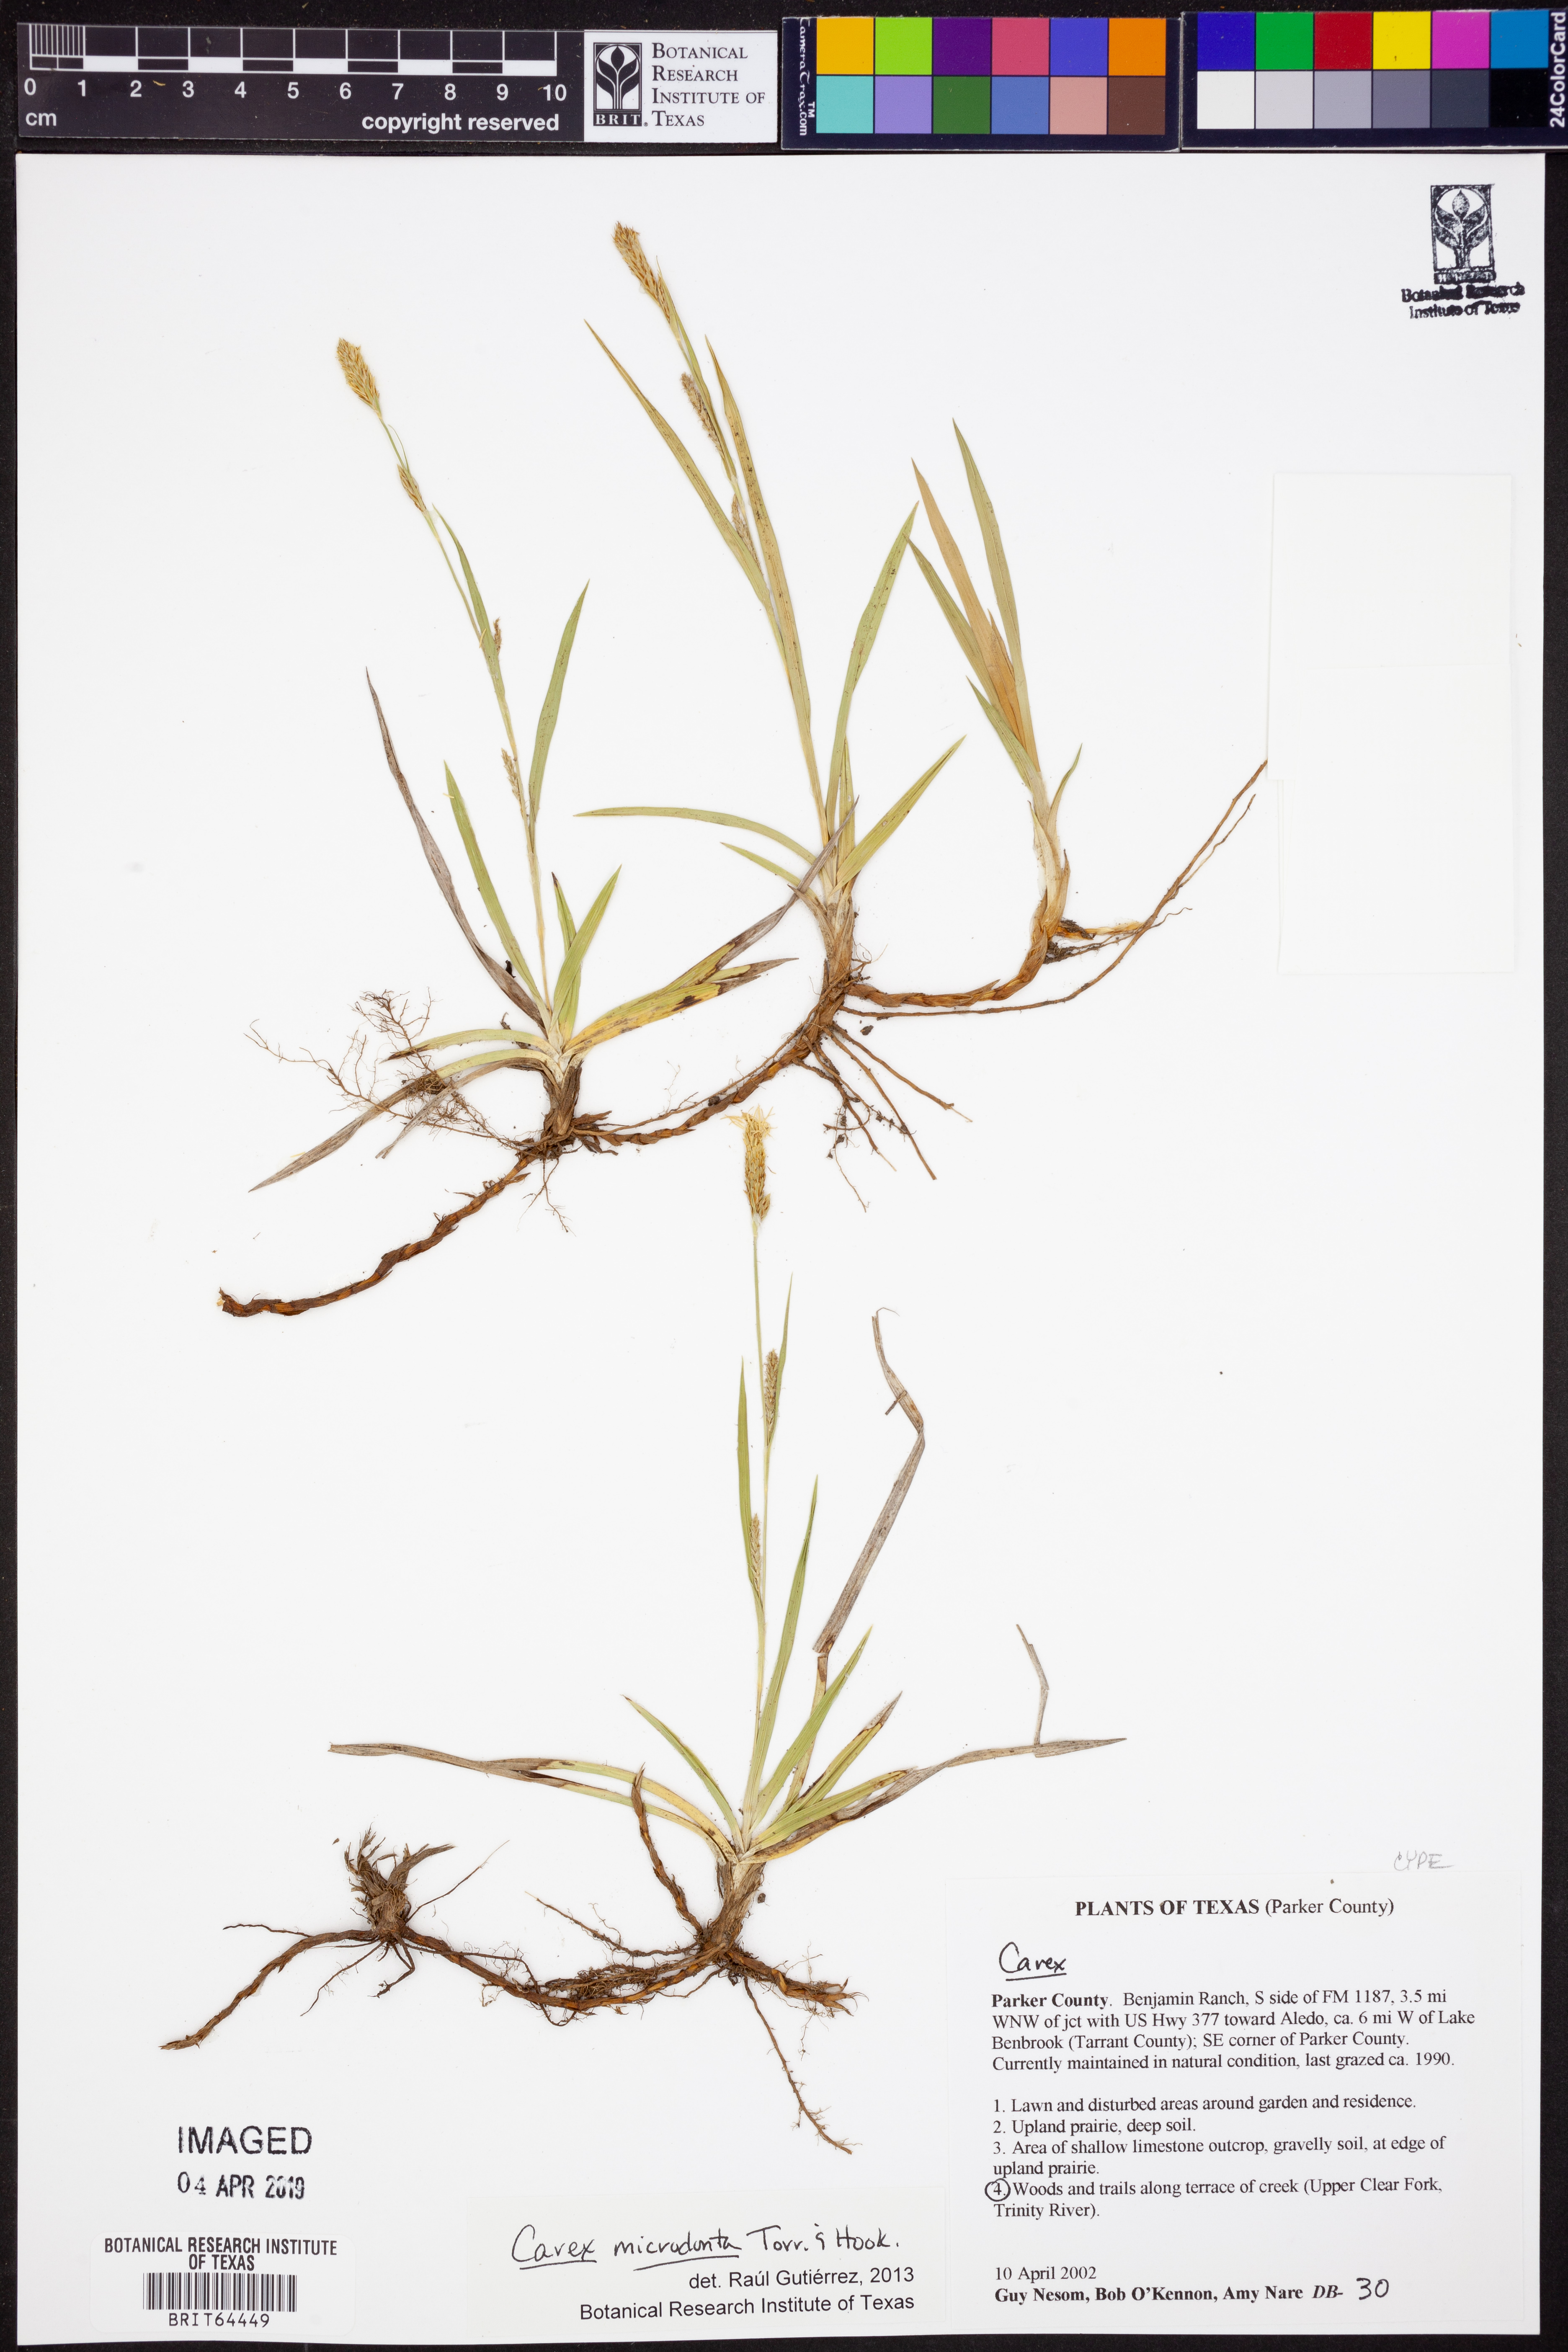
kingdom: Plantae
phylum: Tracheophyta
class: Liliopsida
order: Poales
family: Cyperaceae
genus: Carex
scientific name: Carex microdonta
